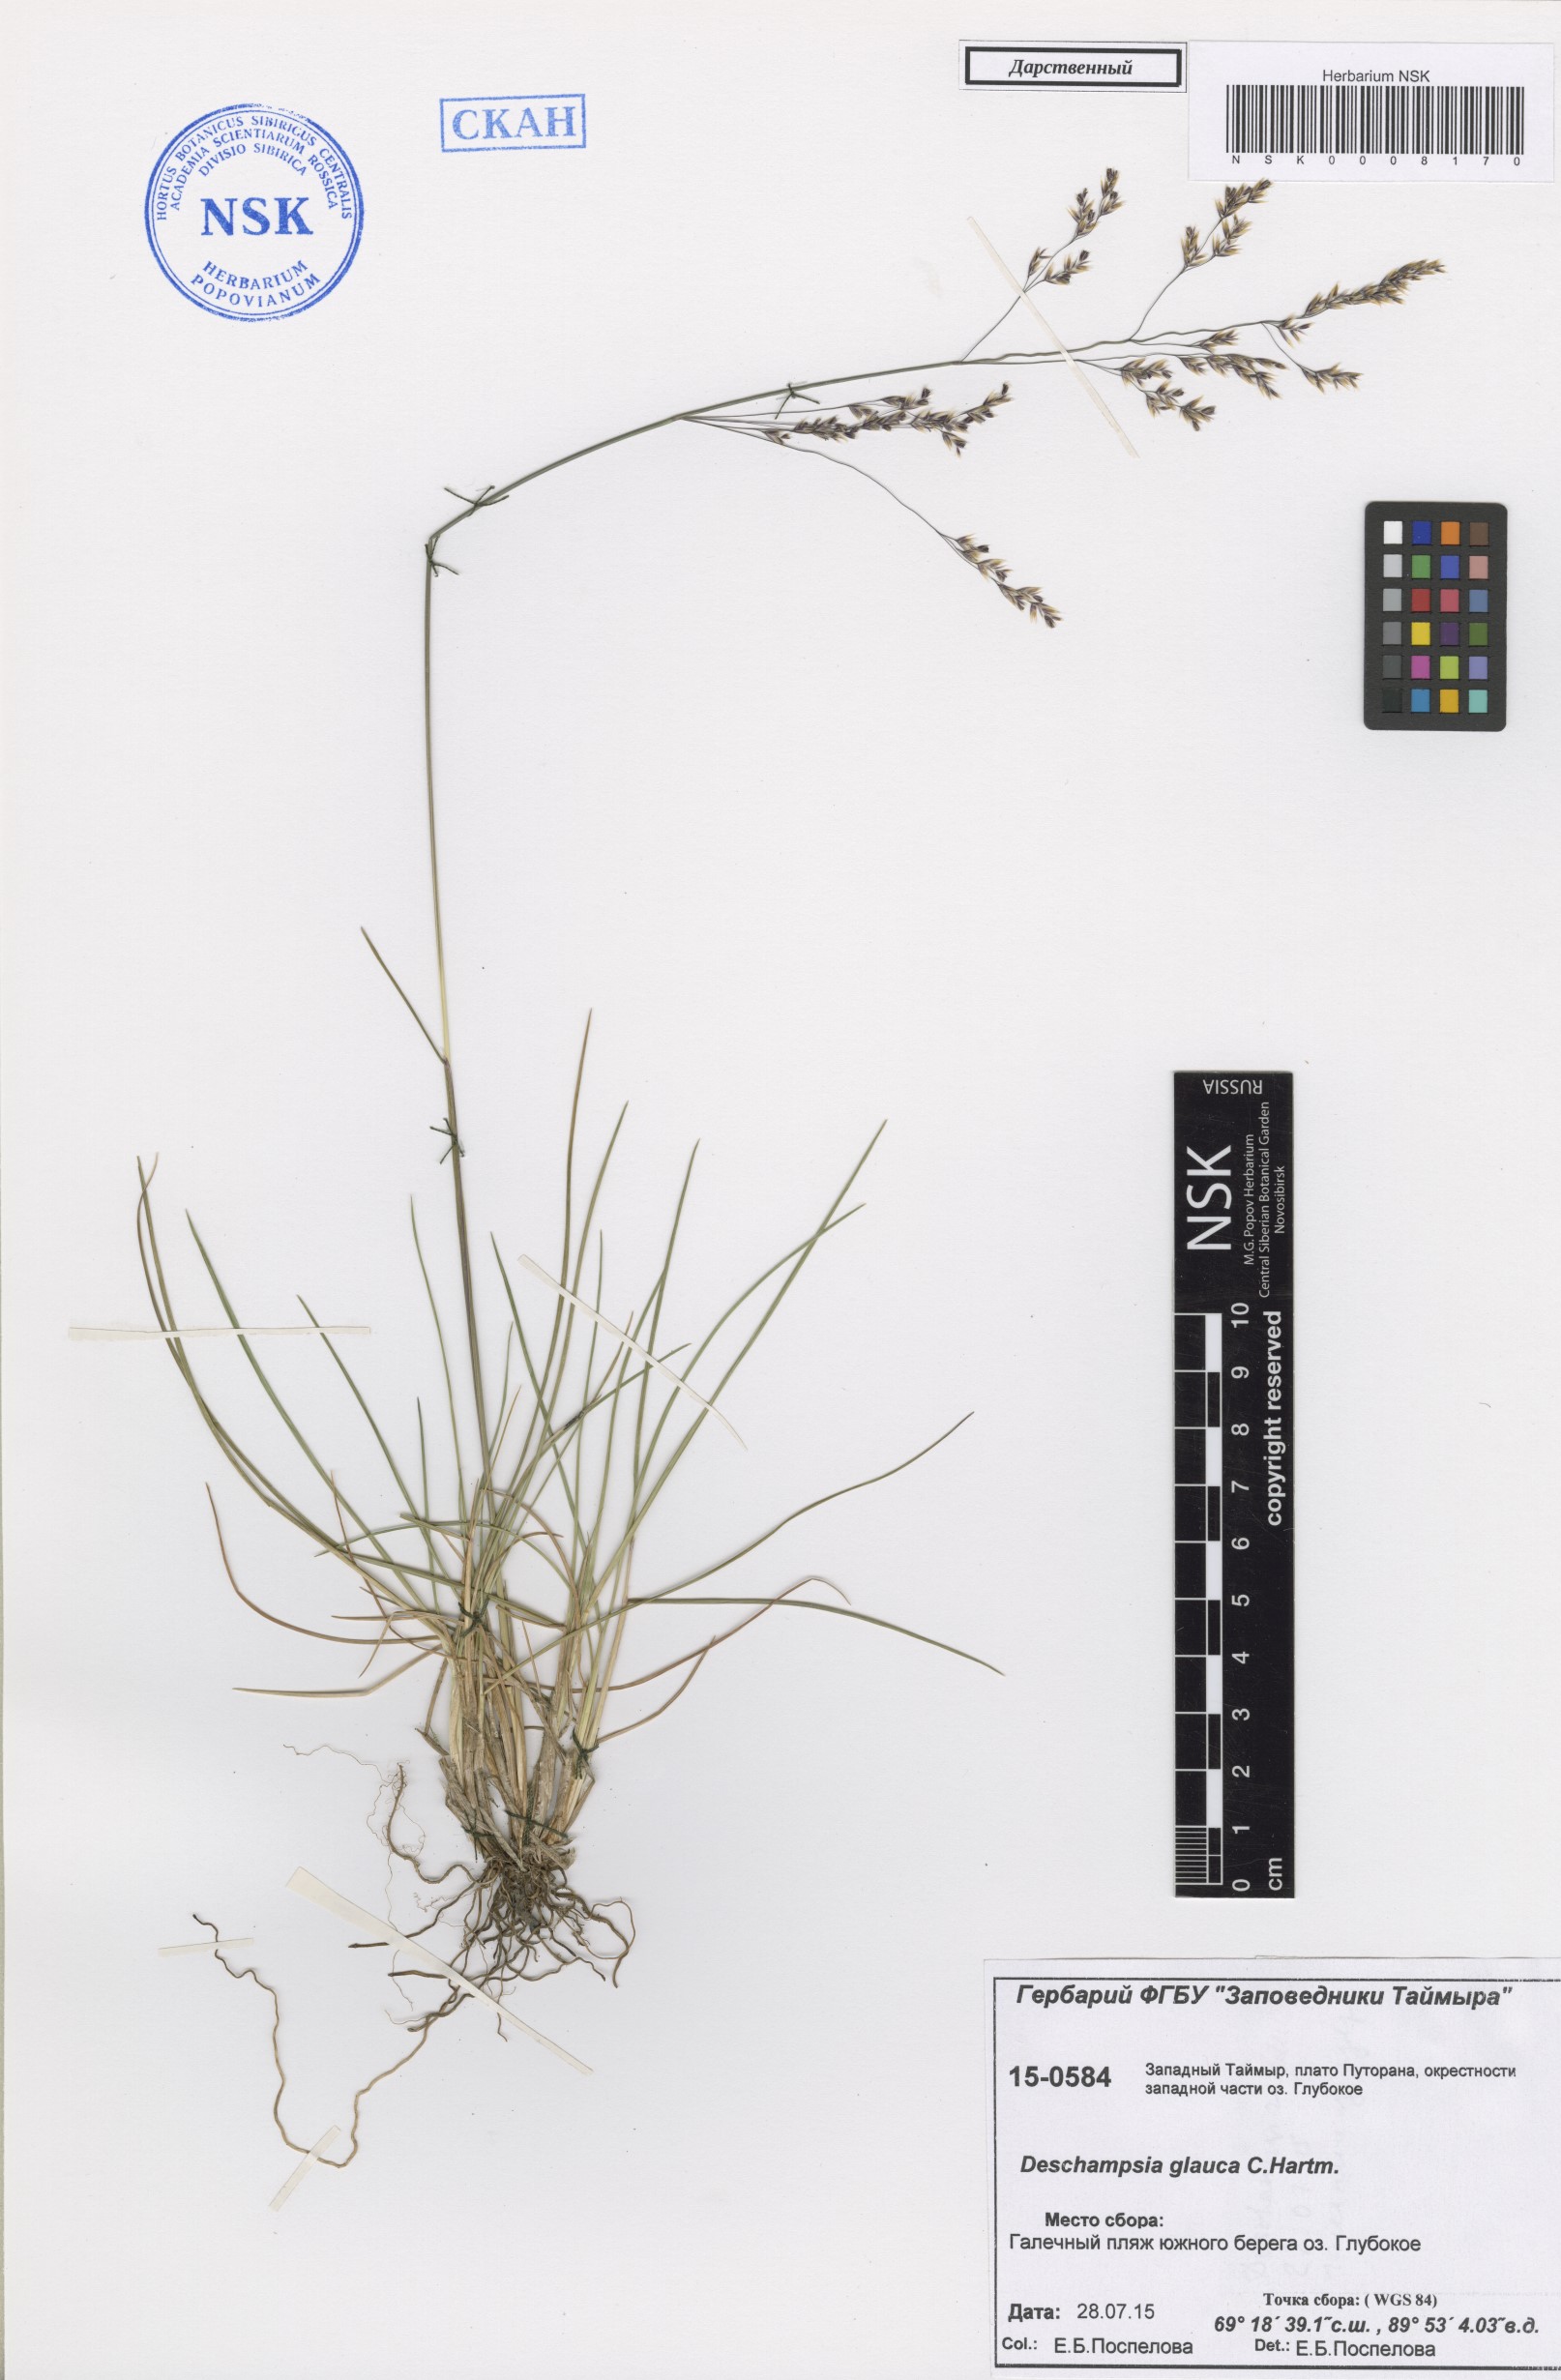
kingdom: Plantae
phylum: Tracheophyta
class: Liliopsida
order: Poales
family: Poaceae
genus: Deschampsia
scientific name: Deschampsia cespitosa
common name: Tufted hair-grass
